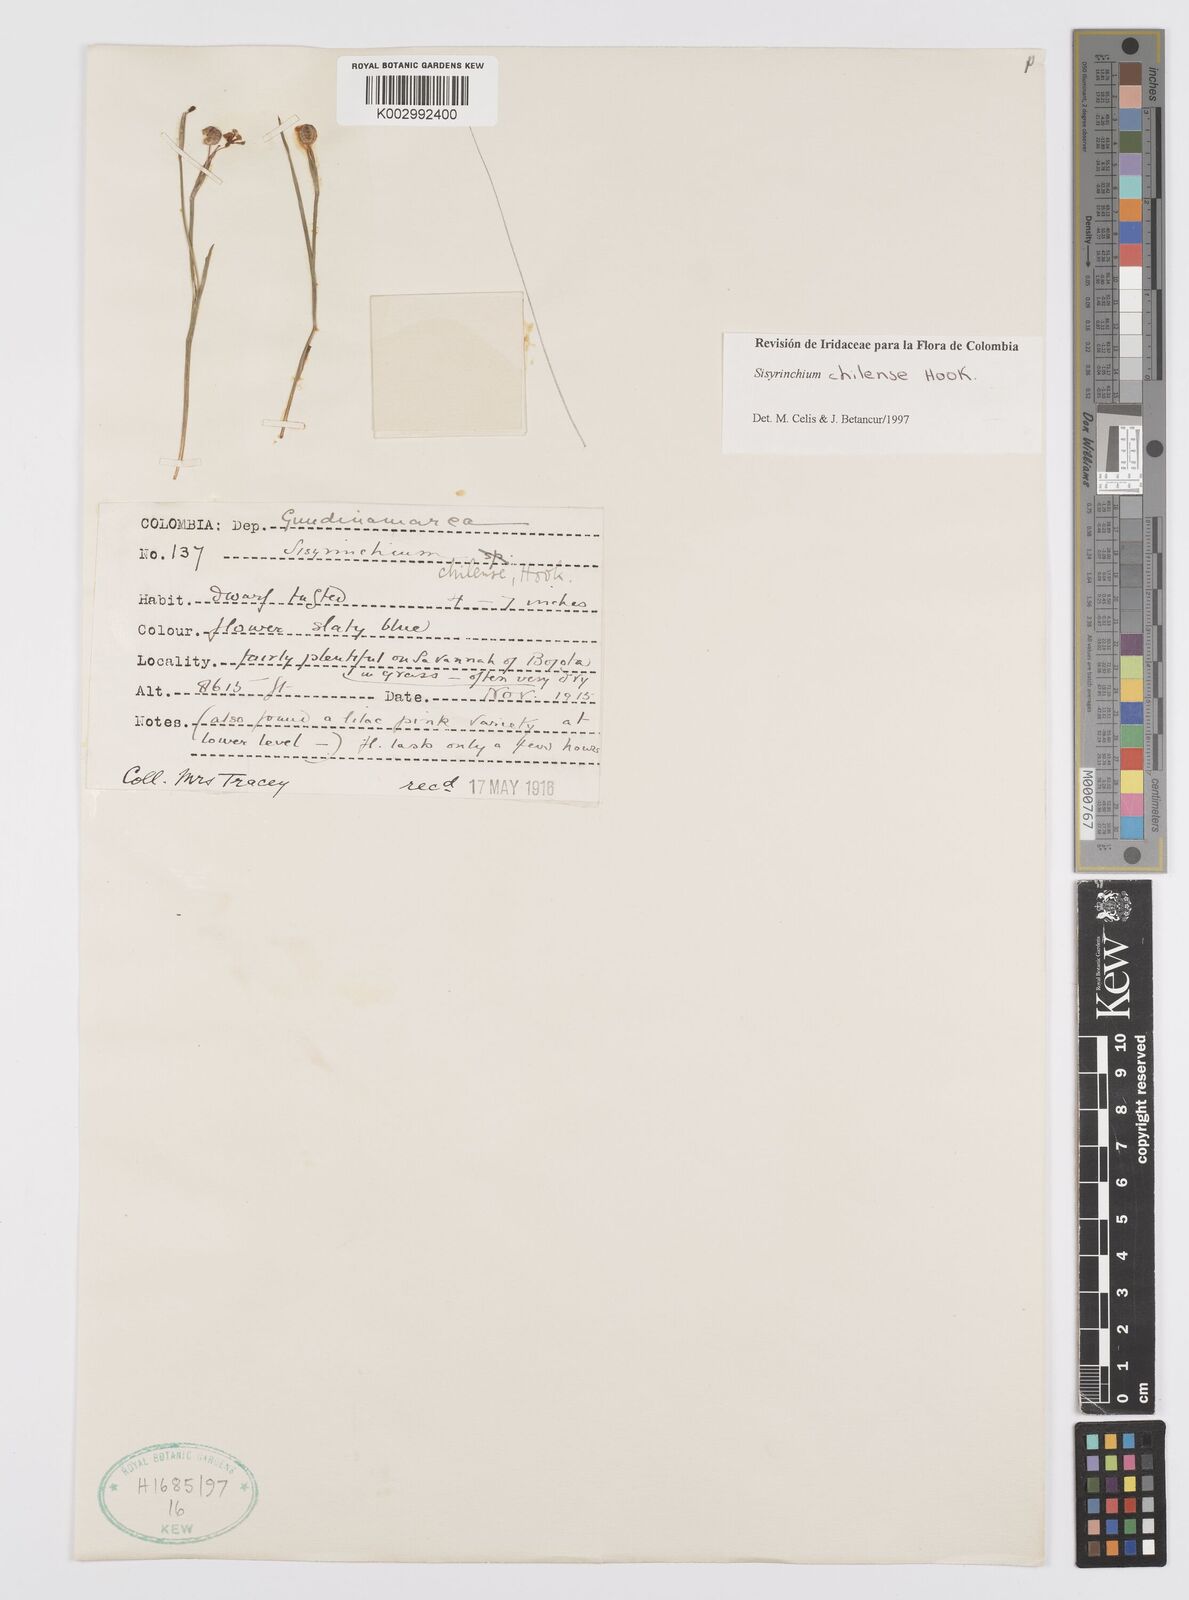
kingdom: Plantae
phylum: Tracheophyta
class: Liliopsida
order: Asparagales
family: Iridaceae
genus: Sisyrinchium
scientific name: Sisyrinchium chilense
